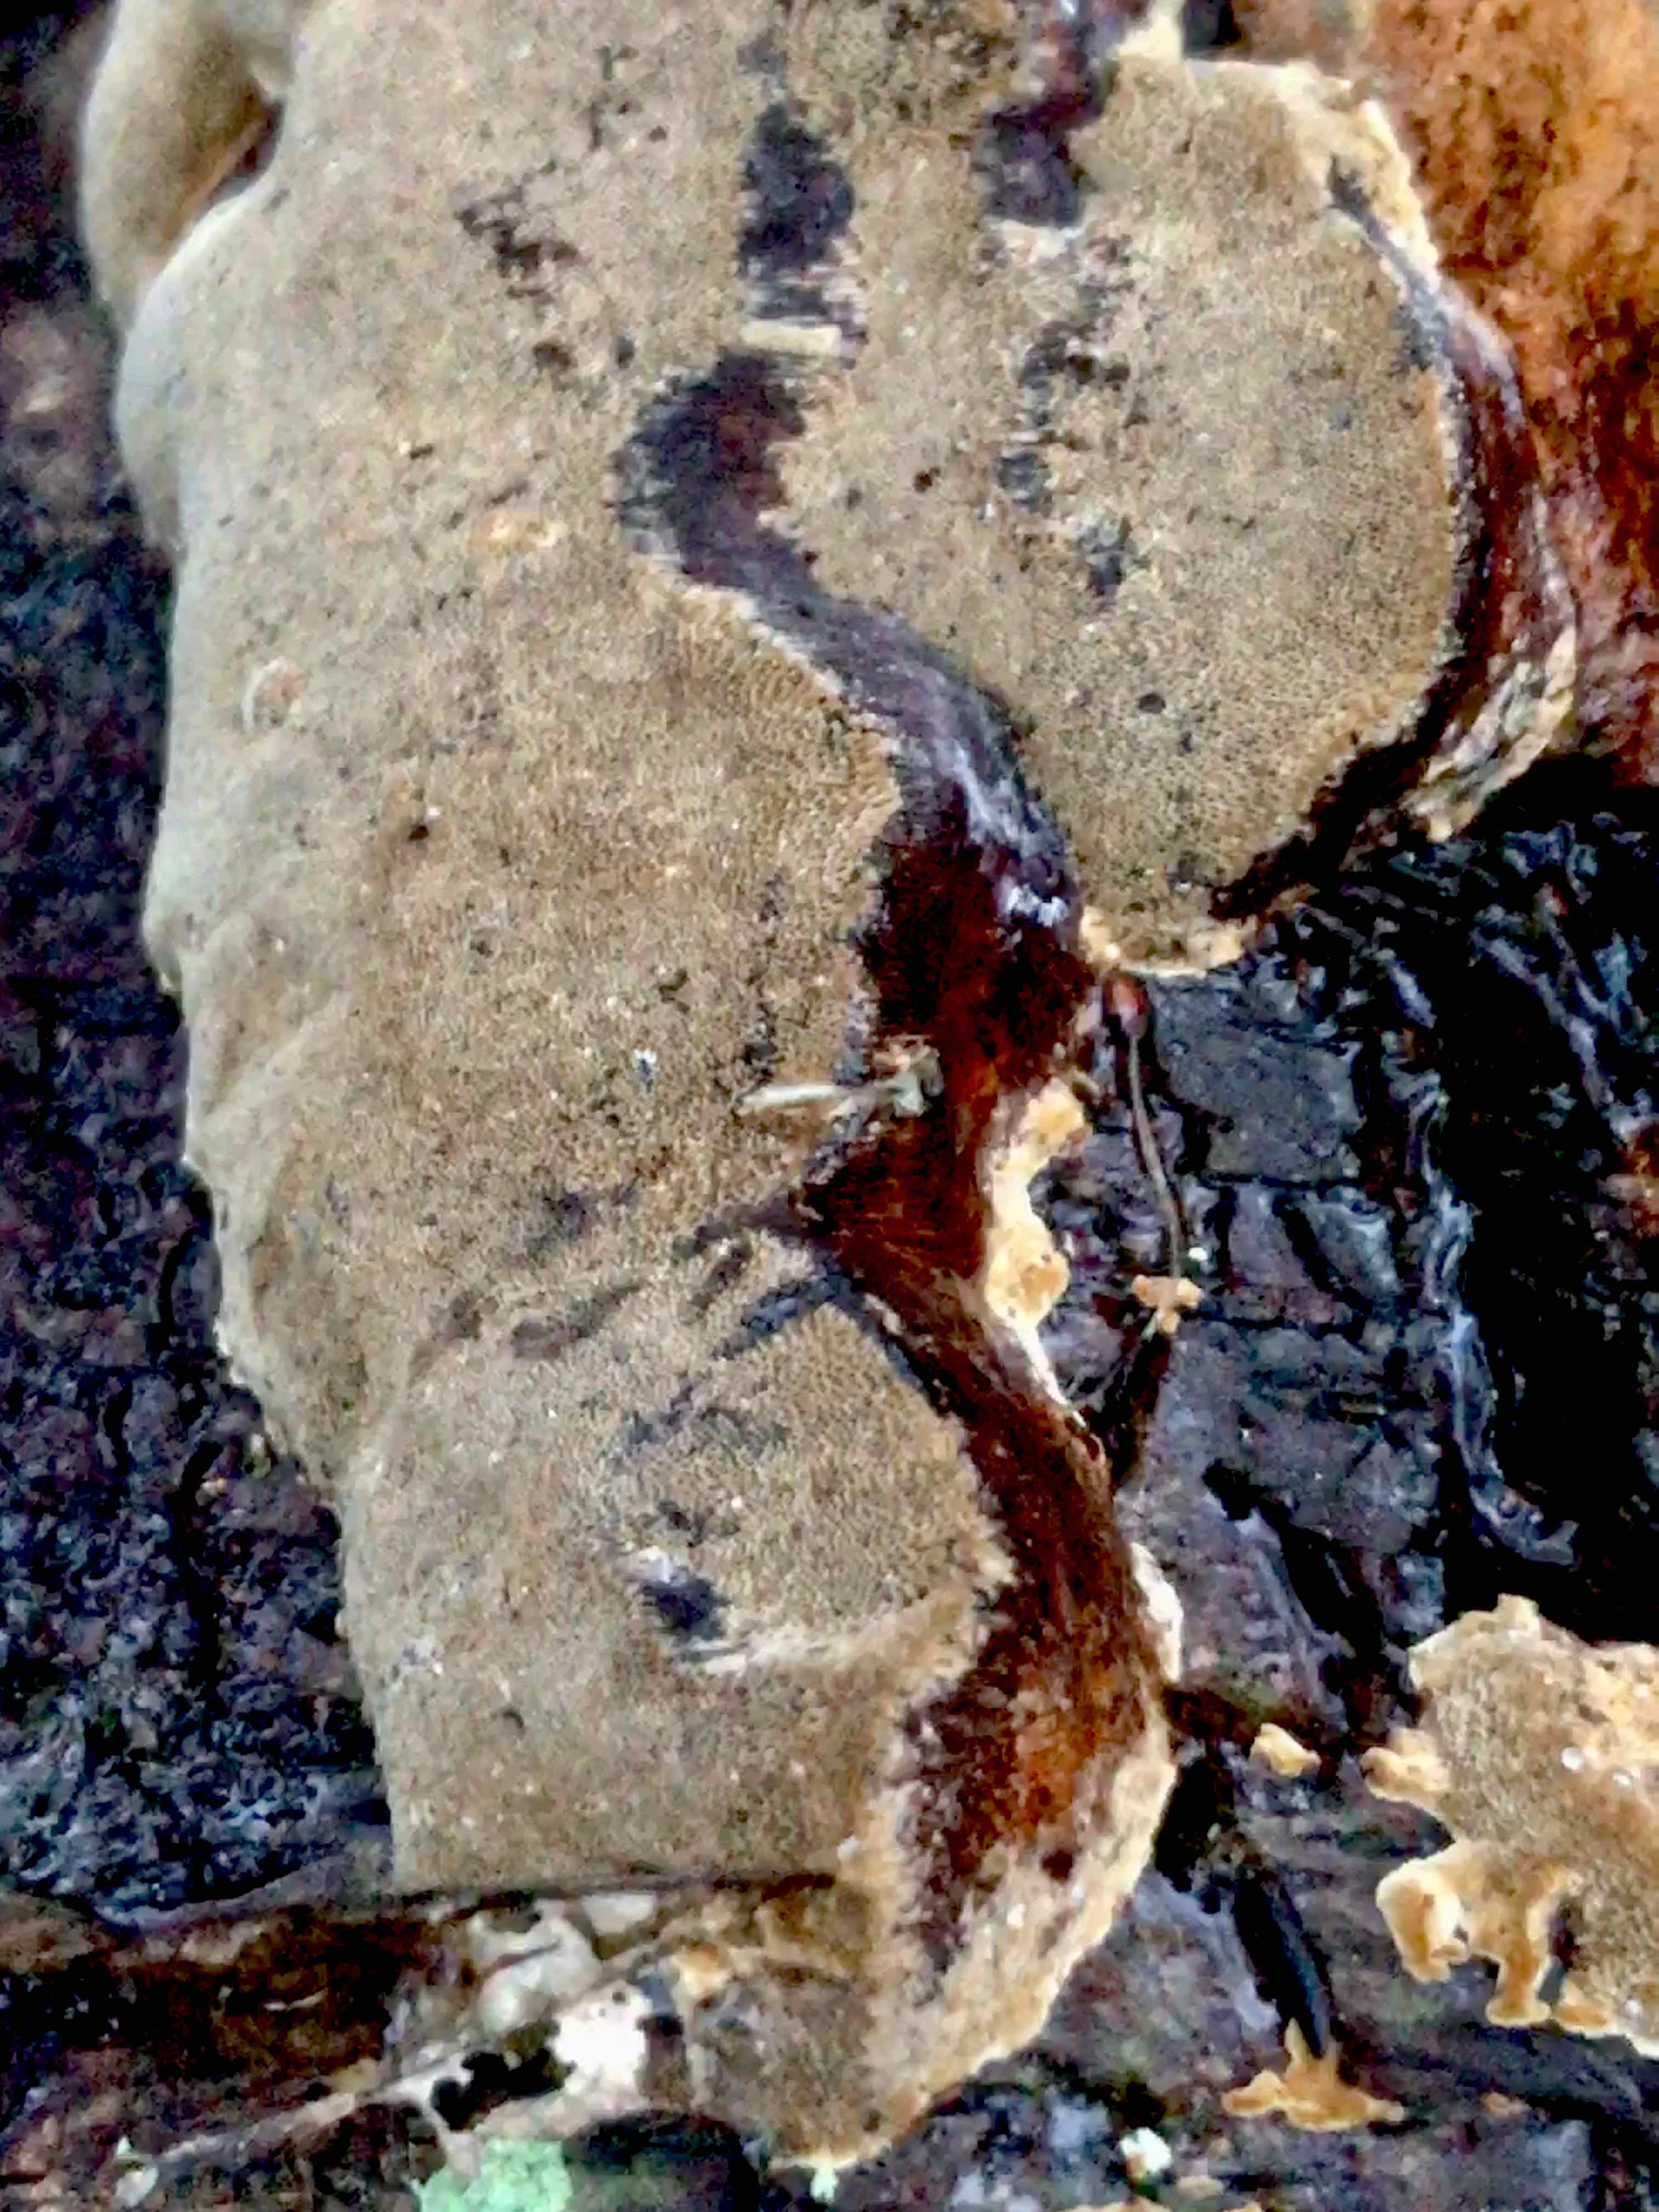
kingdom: Fungi
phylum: Basidiomycota
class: Agaricomycetes
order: Hymenochaetales
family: Hymenochaetaceae
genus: Phellinus
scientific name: Phellinus pomaceus
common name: blomme-ildporesvamp
